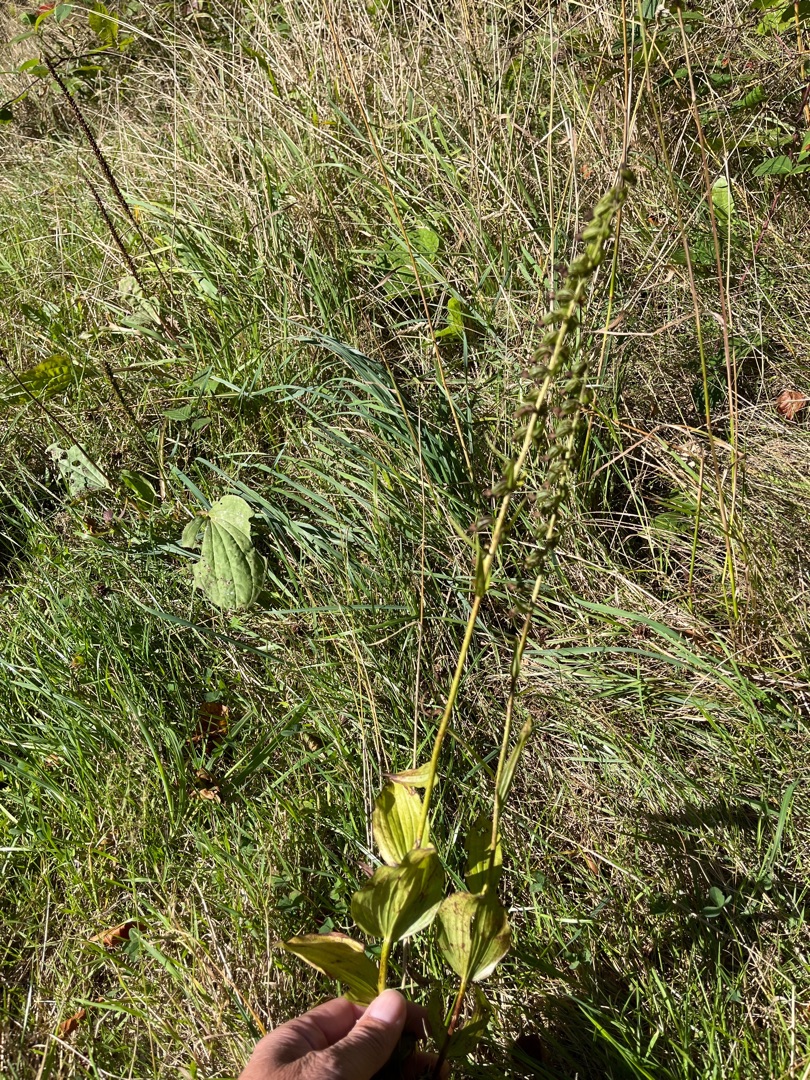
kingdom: Plantae
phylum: Tracheophyta
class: Liliopsida
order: Asparagales
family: Orchidaceae
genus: Epipactis
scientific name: Epipactis helleborine
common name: Skov-hullæbe
